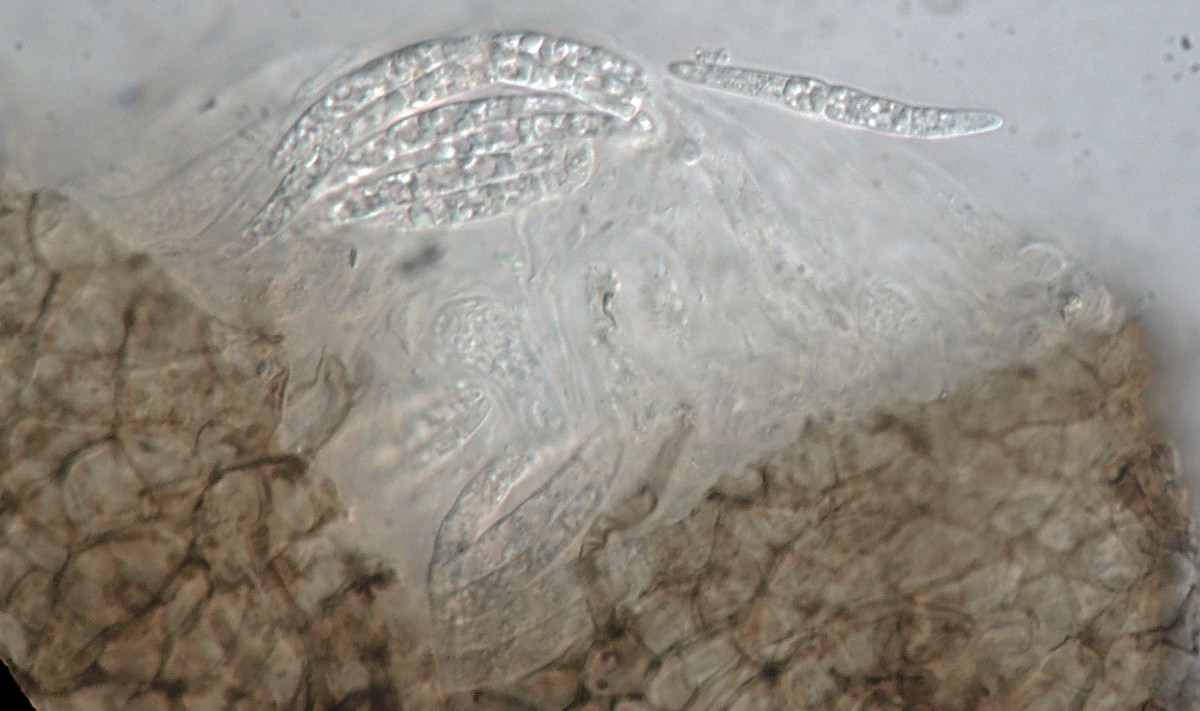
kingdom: Fungi
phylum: Ascomycota
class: Dothideomycetes
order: Tubeufiales
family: Tubeufiaceae
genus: Taphrophila
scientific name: Taphrophila argyllensis
